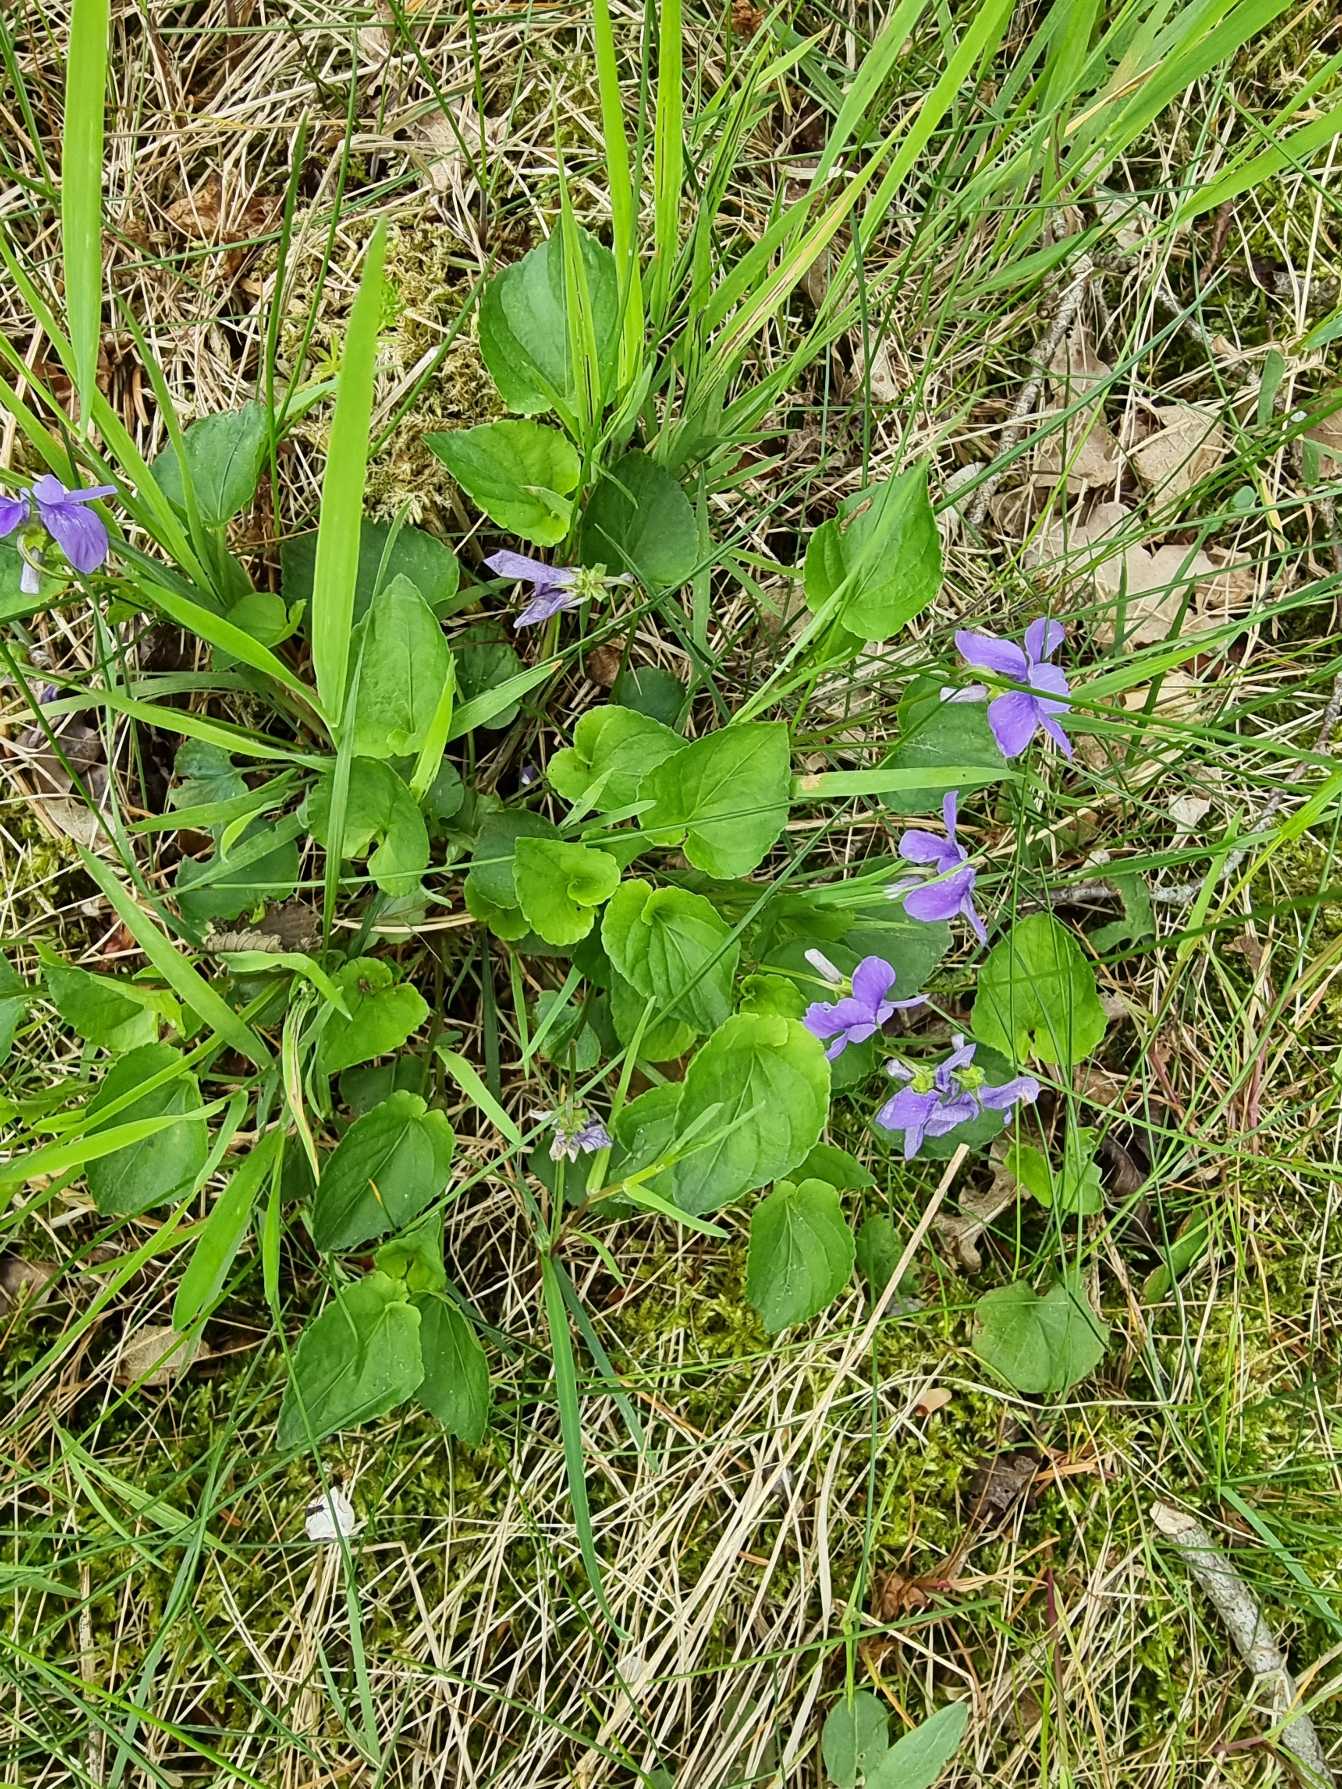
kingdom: Plantae
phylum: Tracheophyta
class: Magnoliopsida
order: Malpighiales
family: Violaceae
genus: Viola
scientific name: Viola riviniana
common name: Krat-viol
